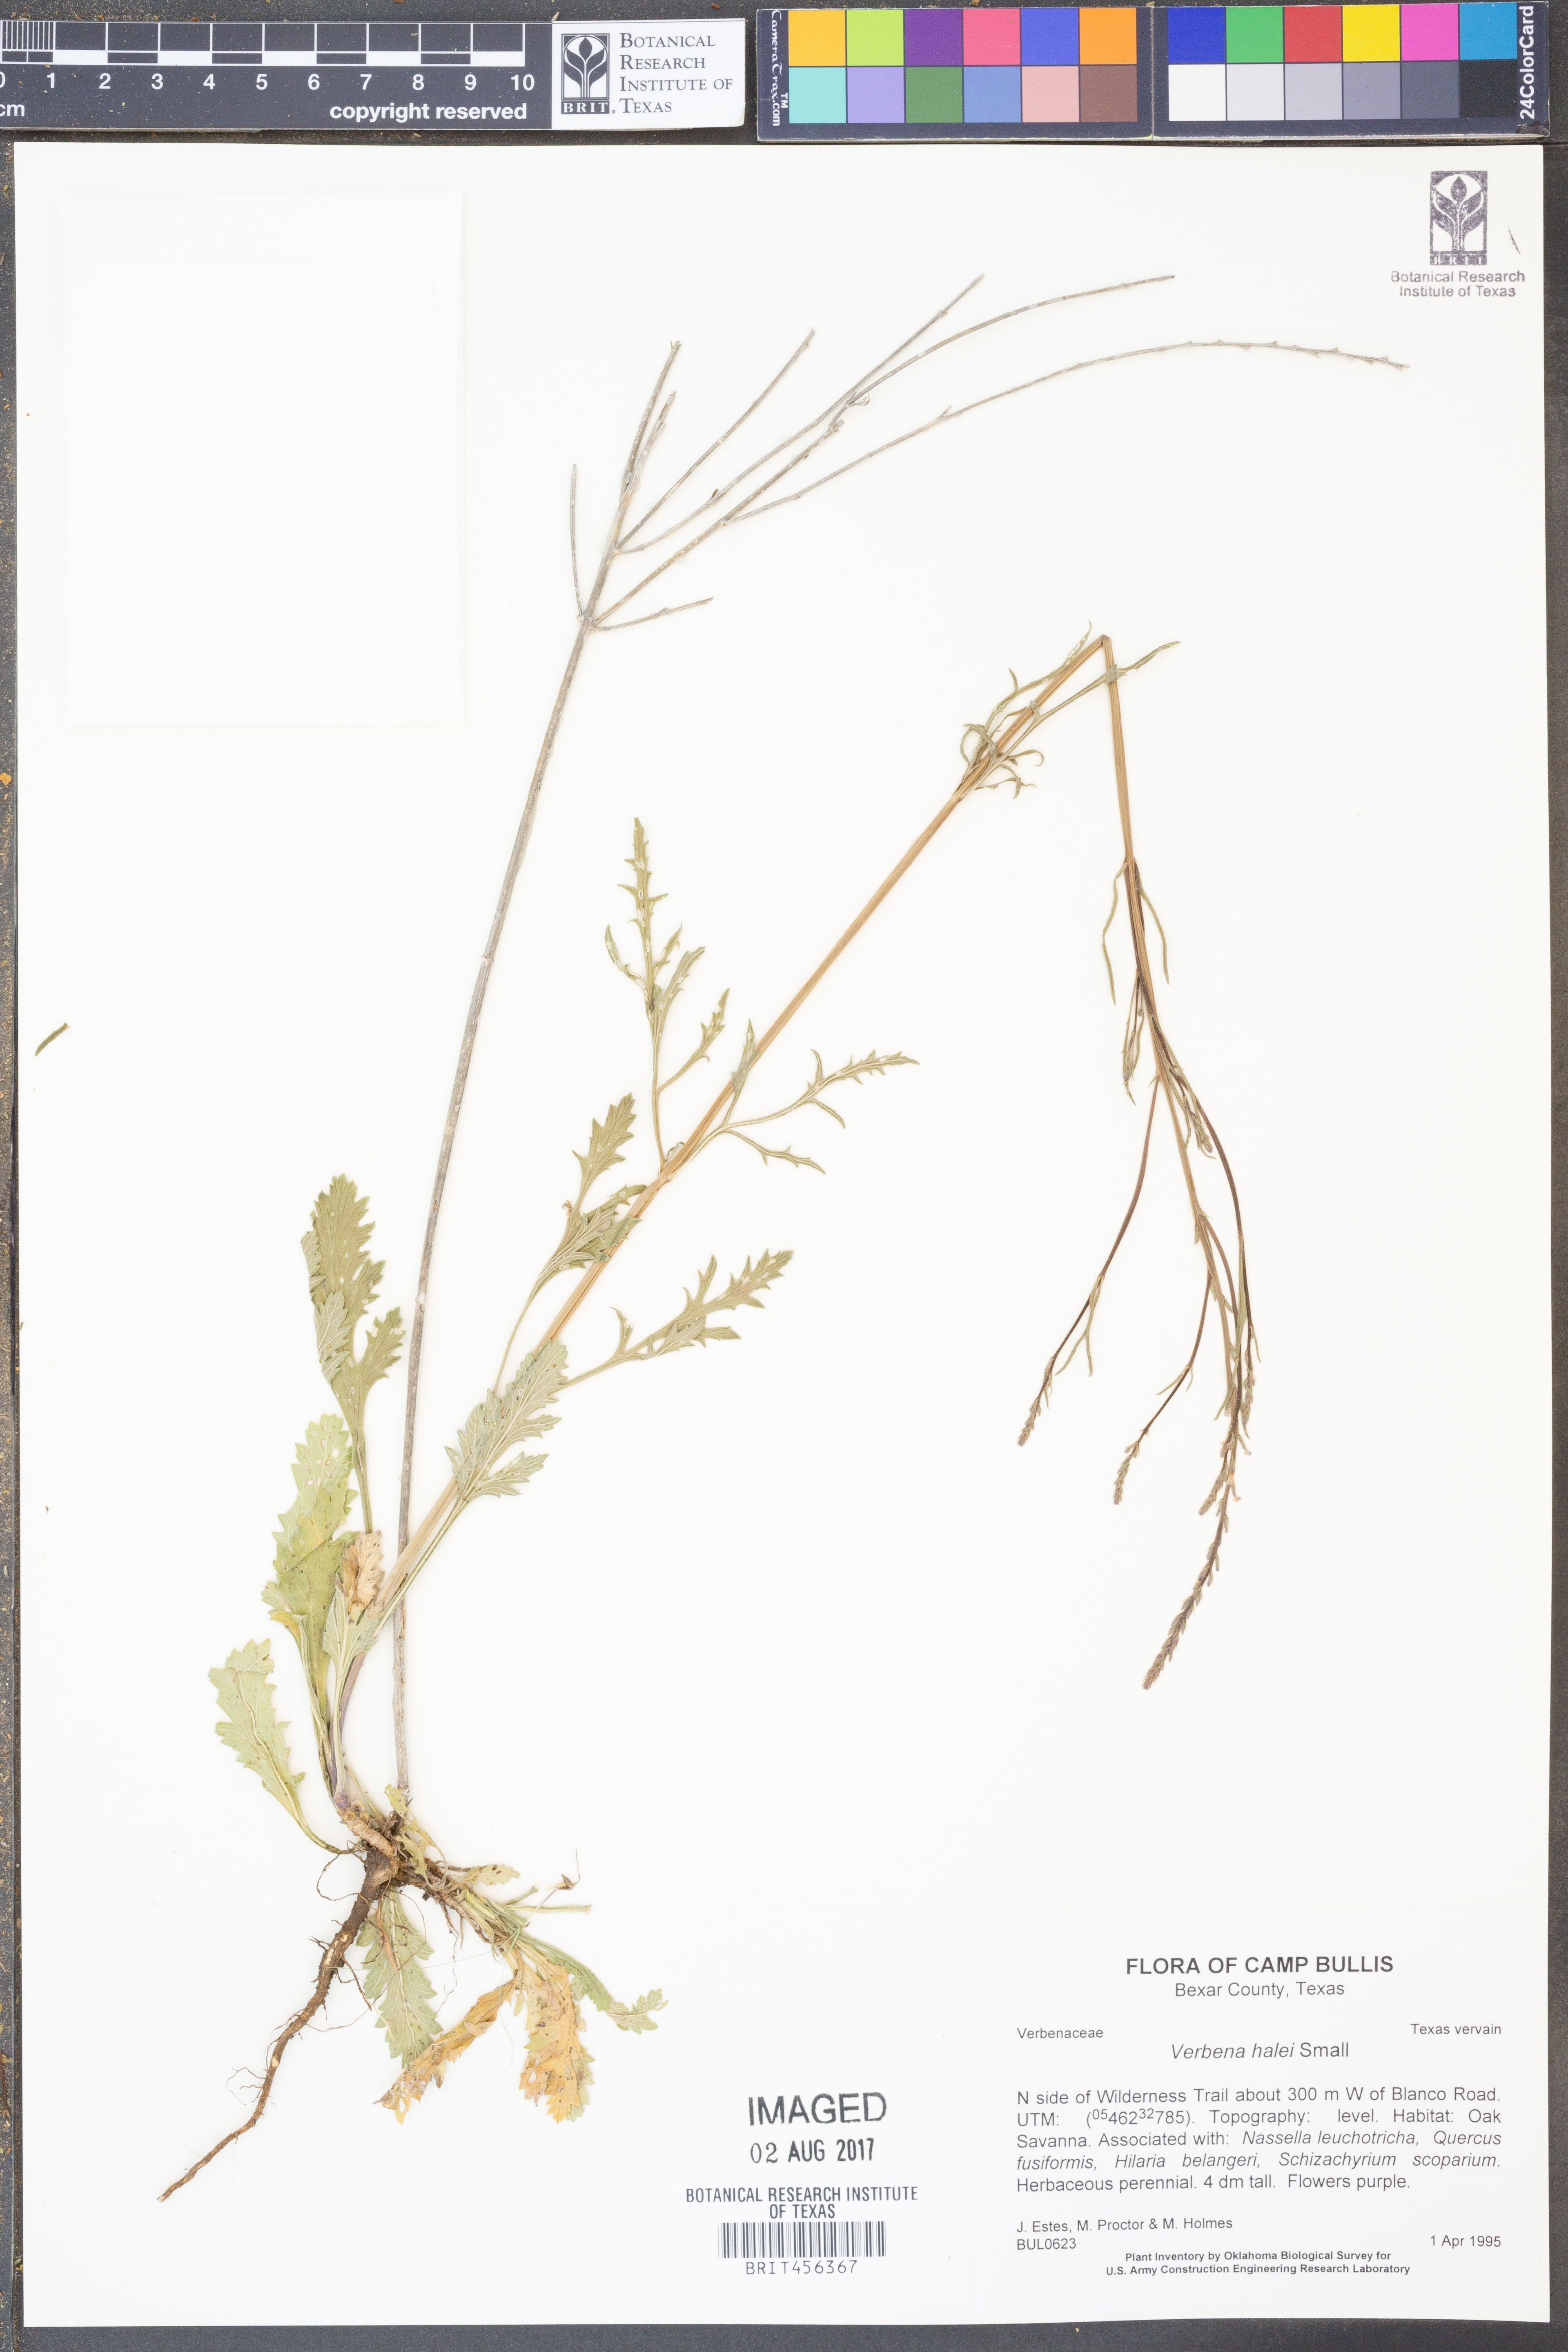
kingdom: Plantae
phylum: Tracheophyta
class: Magnoliopsida
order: Lamiales
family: Verbenaceae
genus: Verbena
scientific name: Verbena halei
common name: Texas vervain
